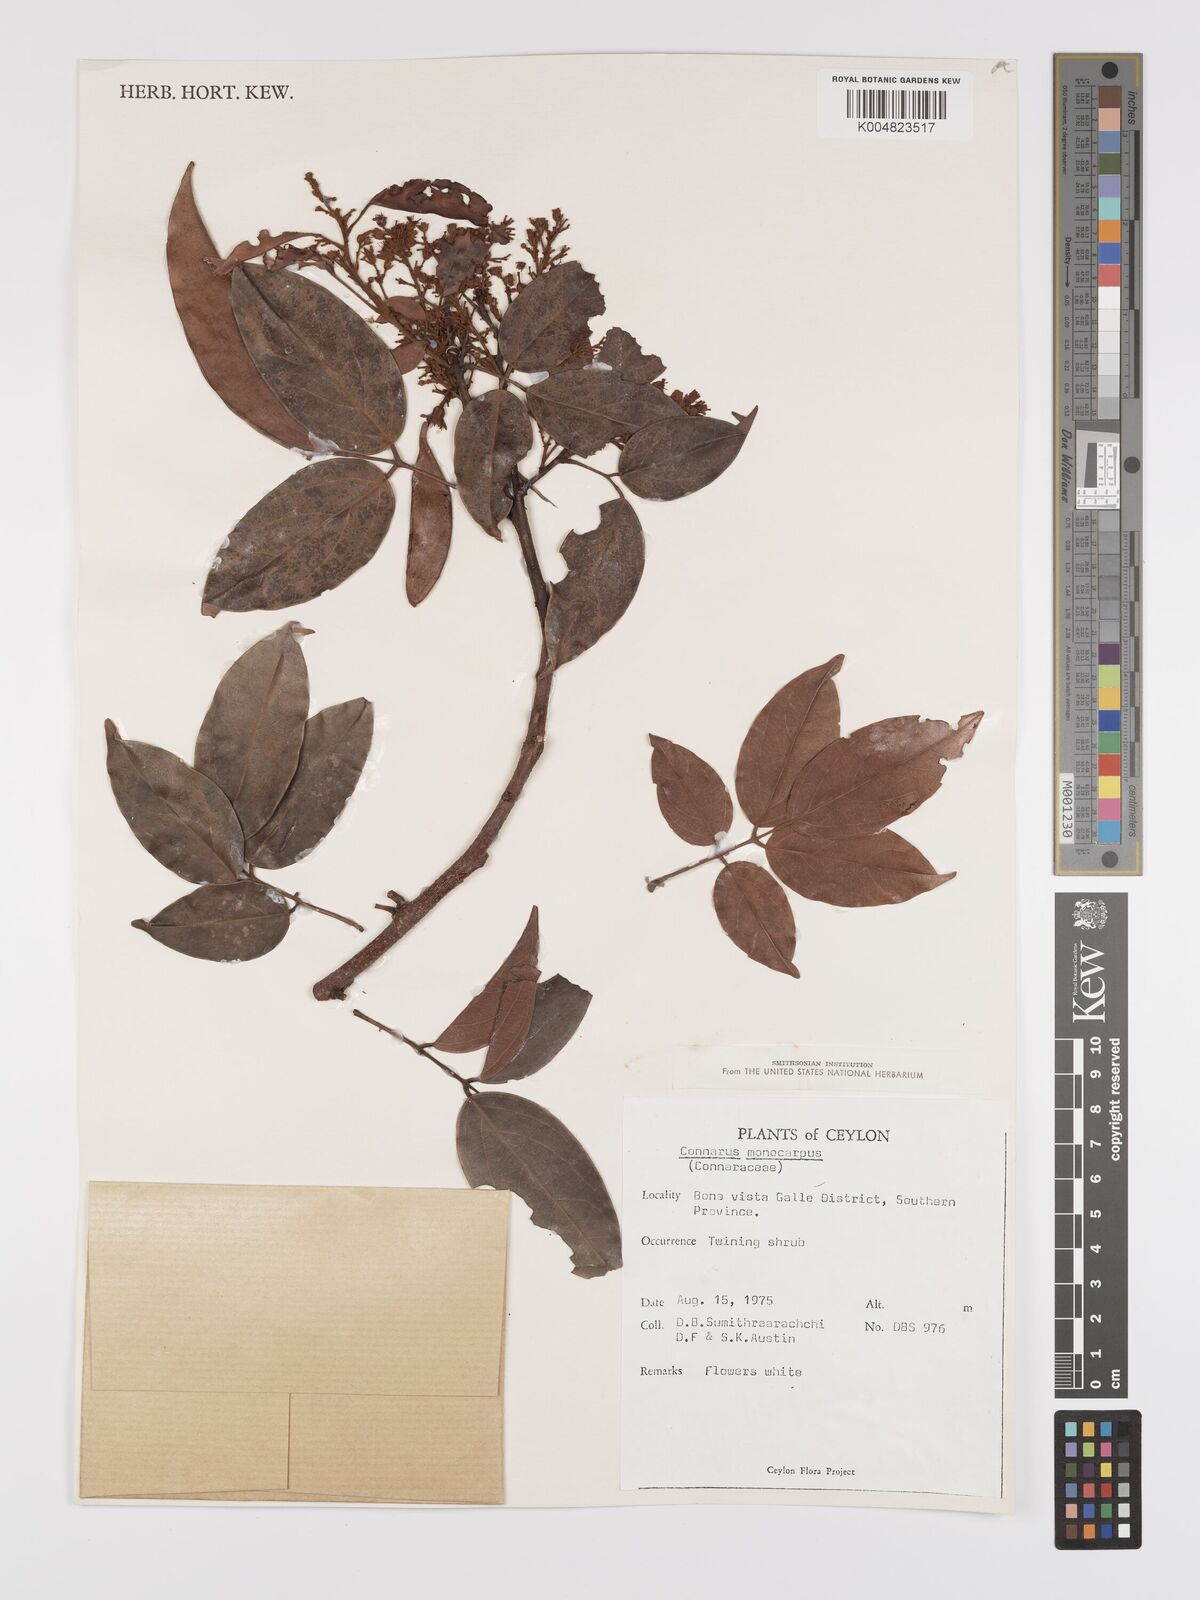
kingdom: Plantae
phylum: Tracheophyta
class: Magnoliopsida
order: Oxalidales
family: Connaraceae
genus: Connarus
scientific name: Connarus semidecandrus
